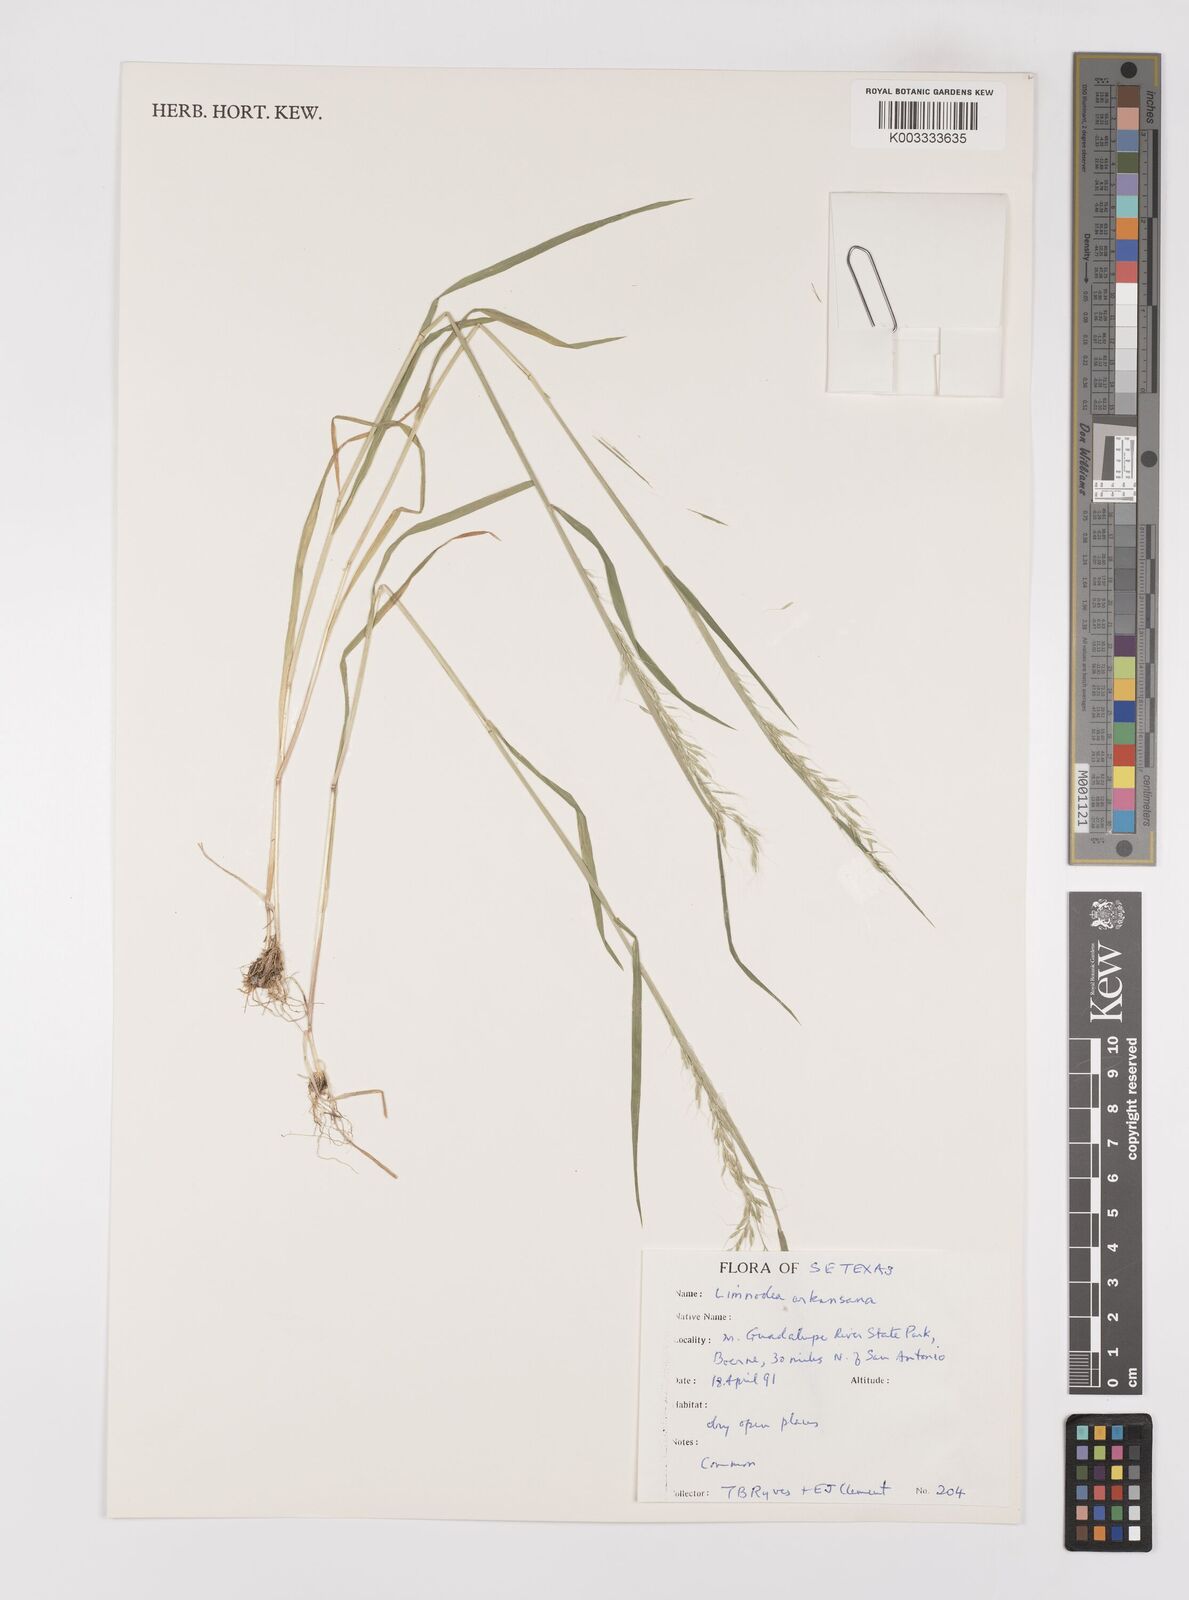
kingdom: Plantae
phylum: Tracheophyta
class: Liliopsida
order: Poales
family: Poaceae
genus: Limnodea
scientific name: Limnodea arkansana
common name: Ozark-grass
